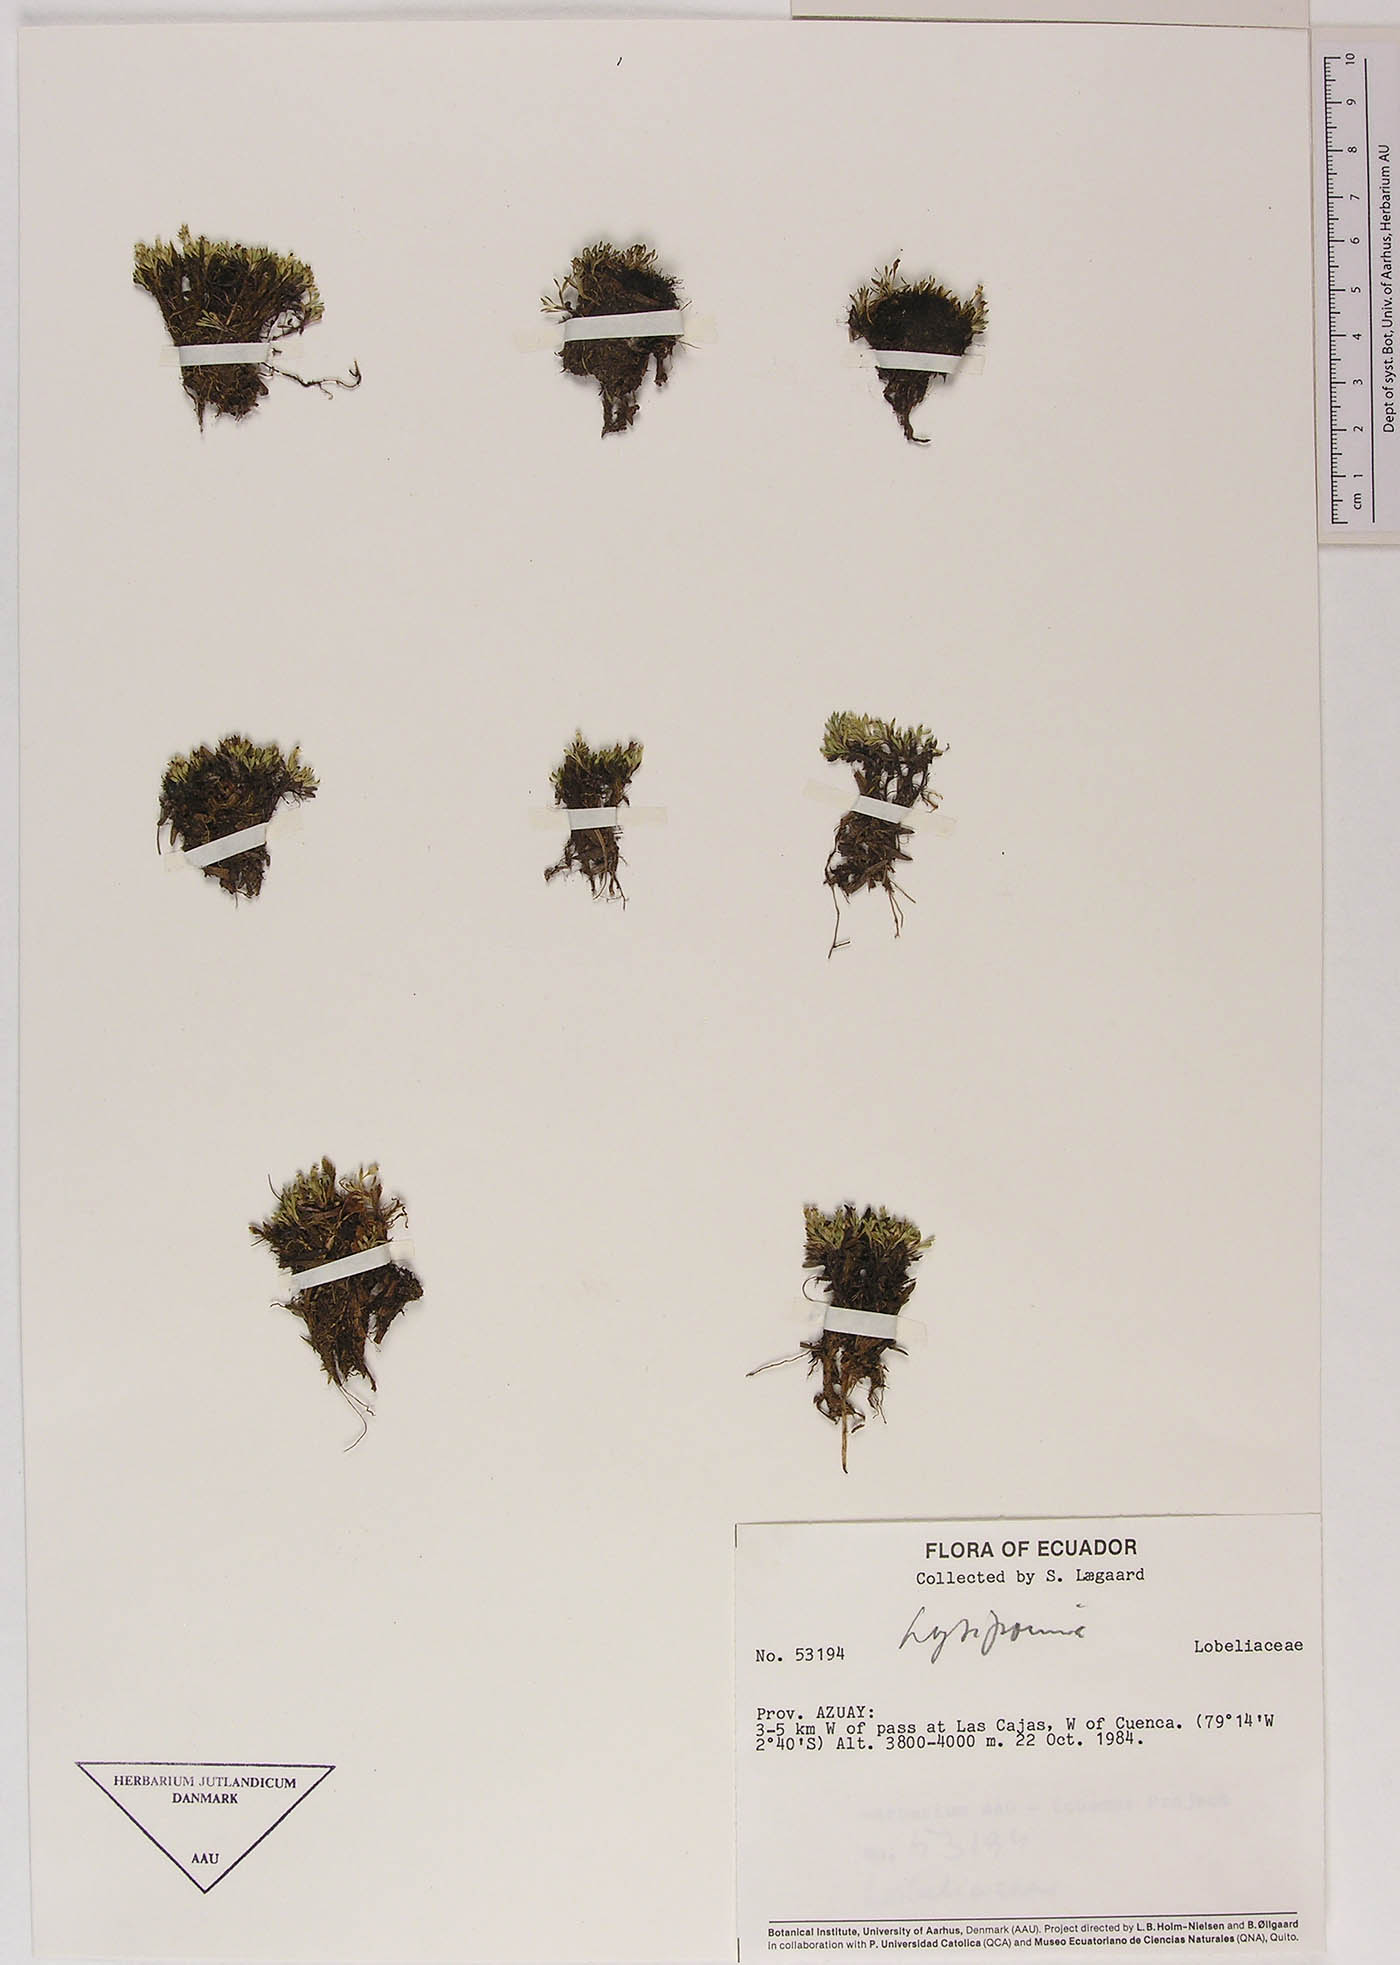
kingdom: Plantae
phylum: Tracheophyta
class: Magnoliopsida
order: Asterales
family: Campanulaceae
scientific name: Campanulaceae
